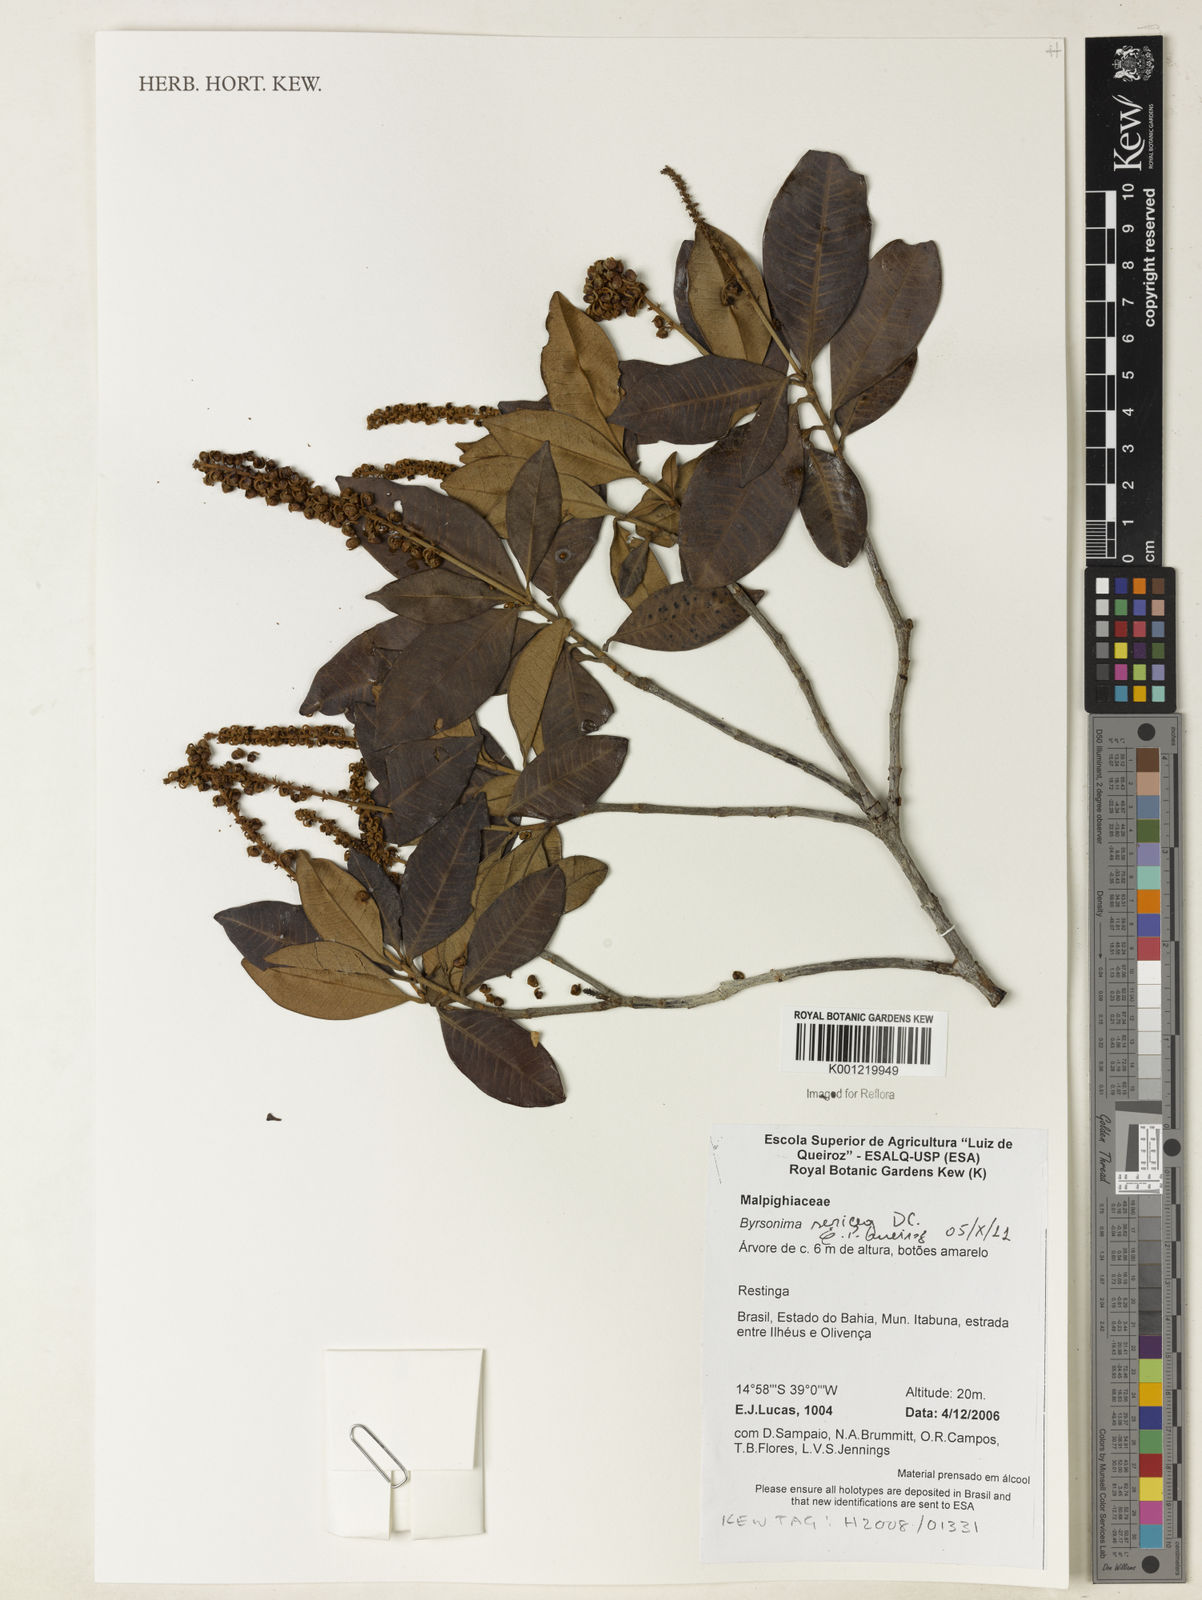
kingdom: Plantae
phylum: Tracheophyta
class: Magnoliopsida
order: Malpighiales
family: Malpighiaceae
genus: Byrsonima
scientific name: Byrsonima sericea
